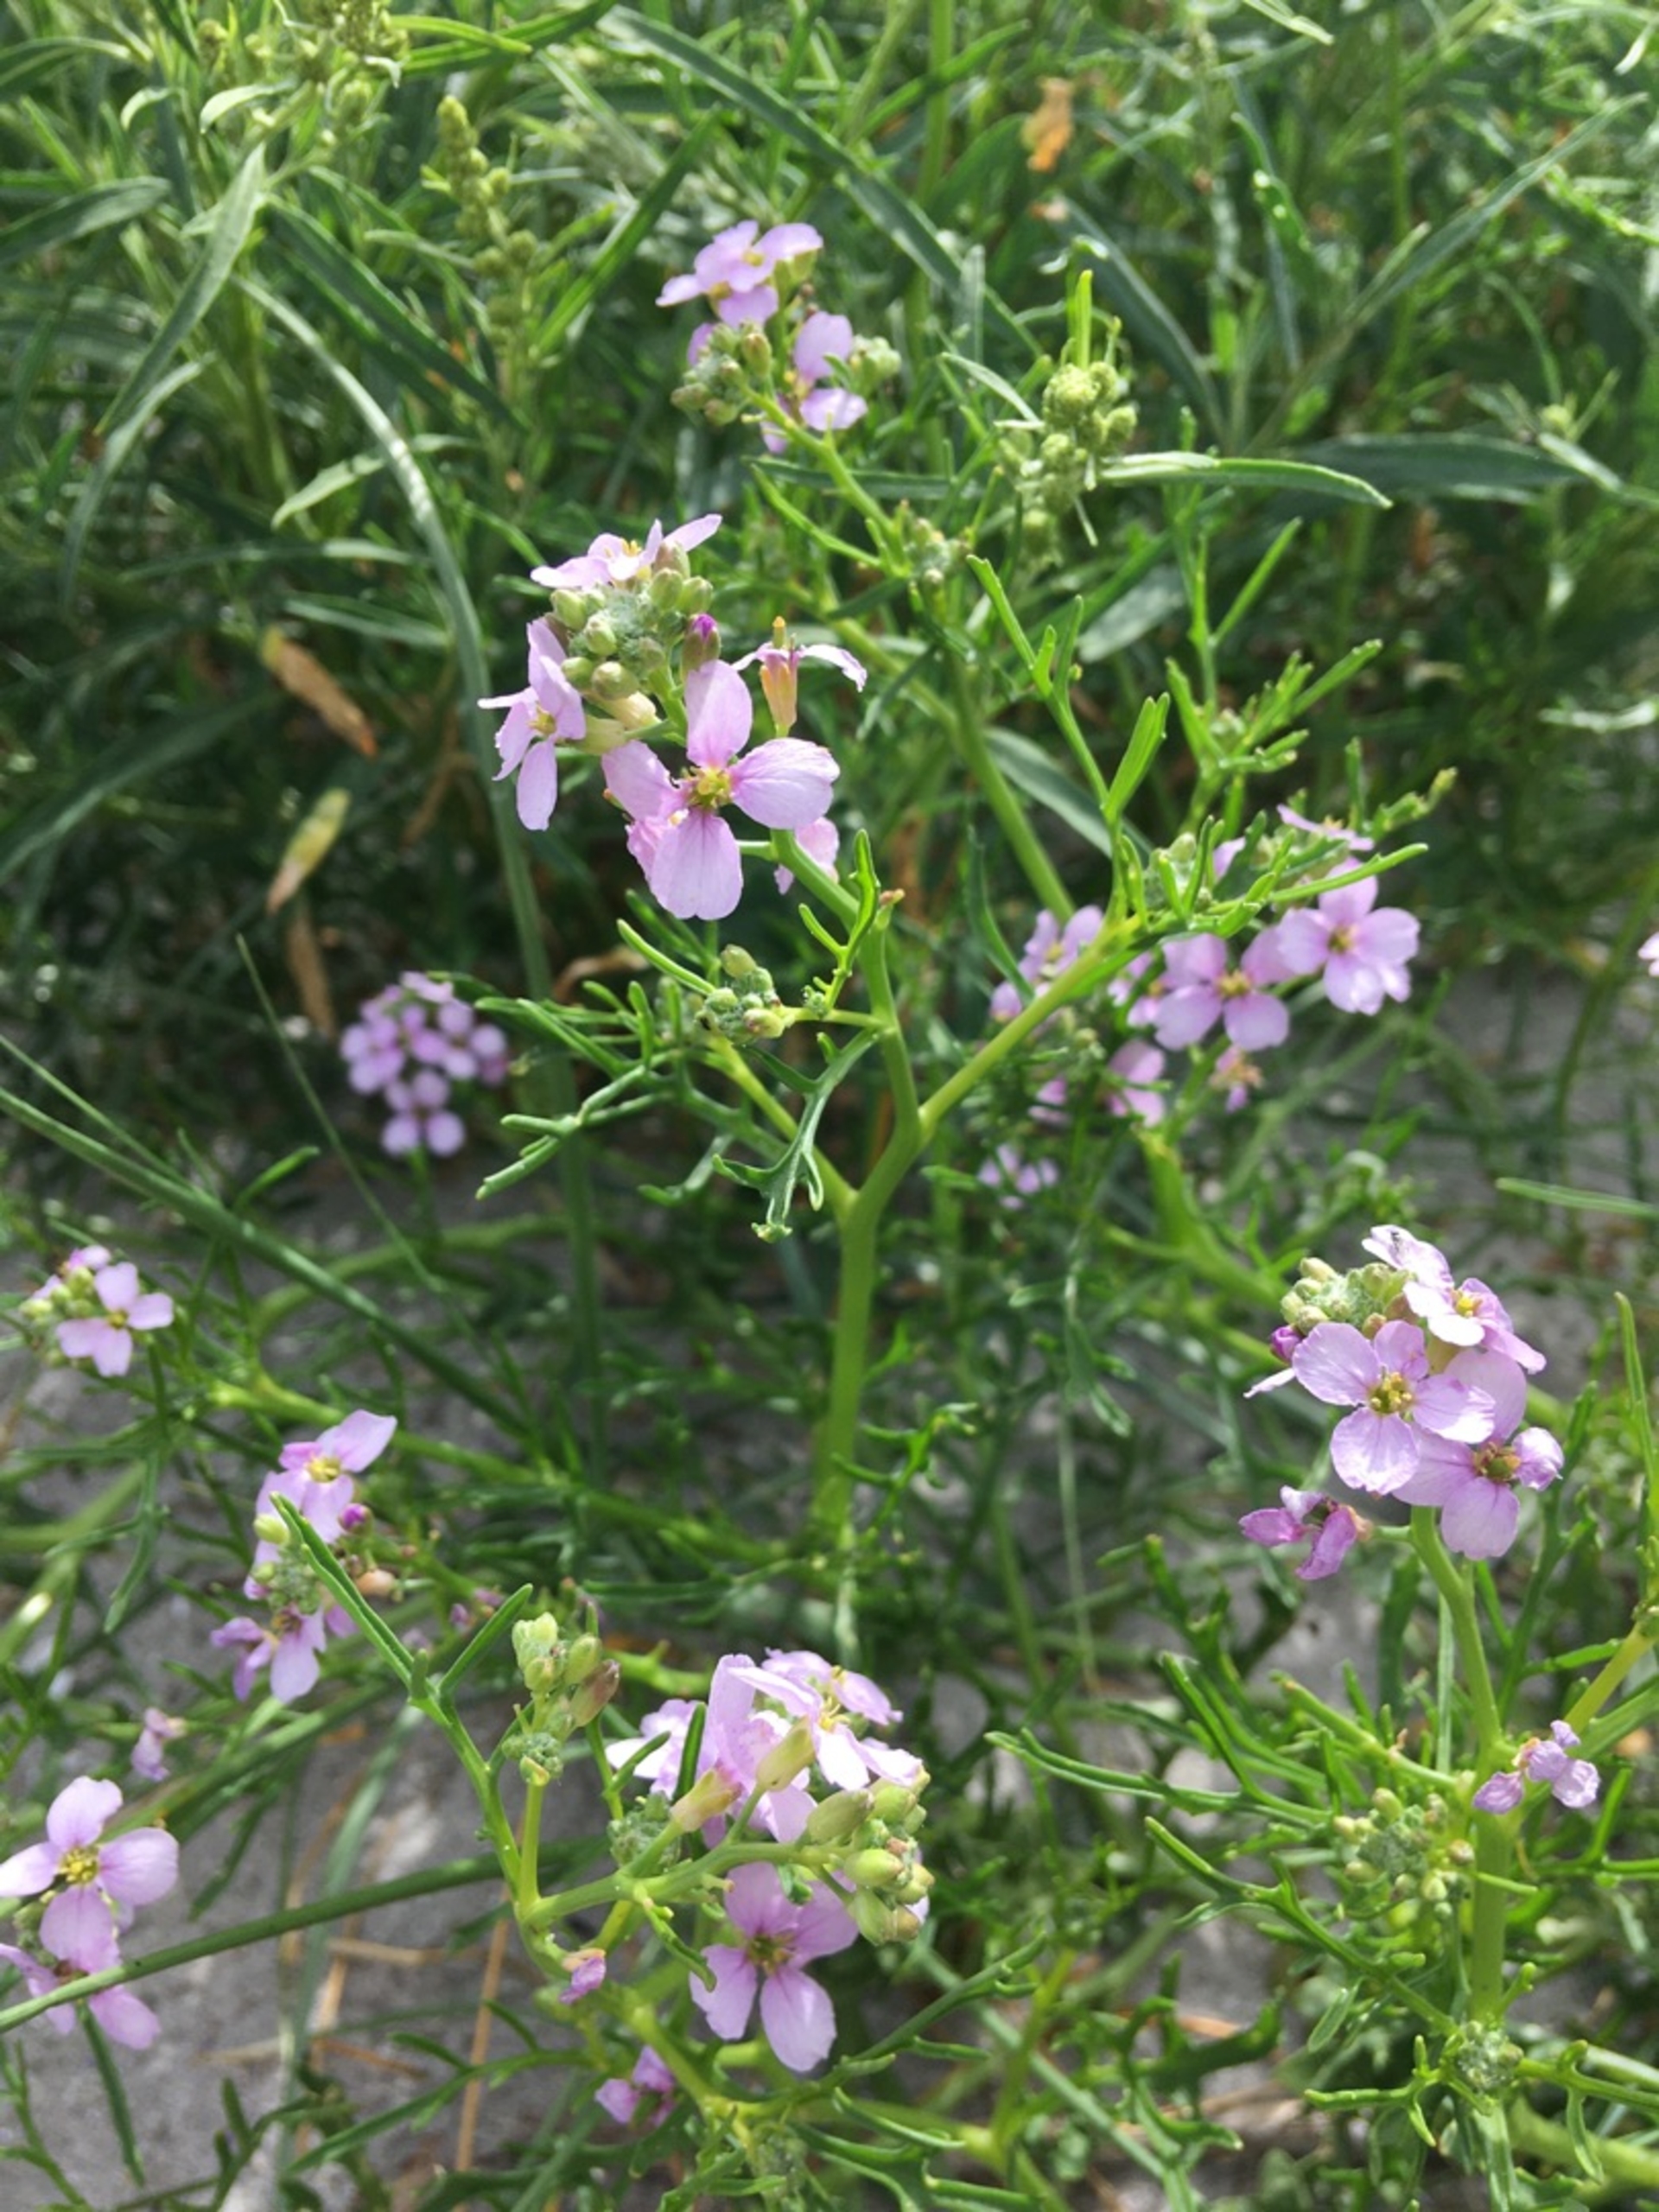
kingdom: Plantae
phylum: Tracheophyta
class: Magnoliopsida
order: Brassicales
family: Brassicaceae
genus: Cakile
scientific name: Cakile maritima
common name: Strandsennep
